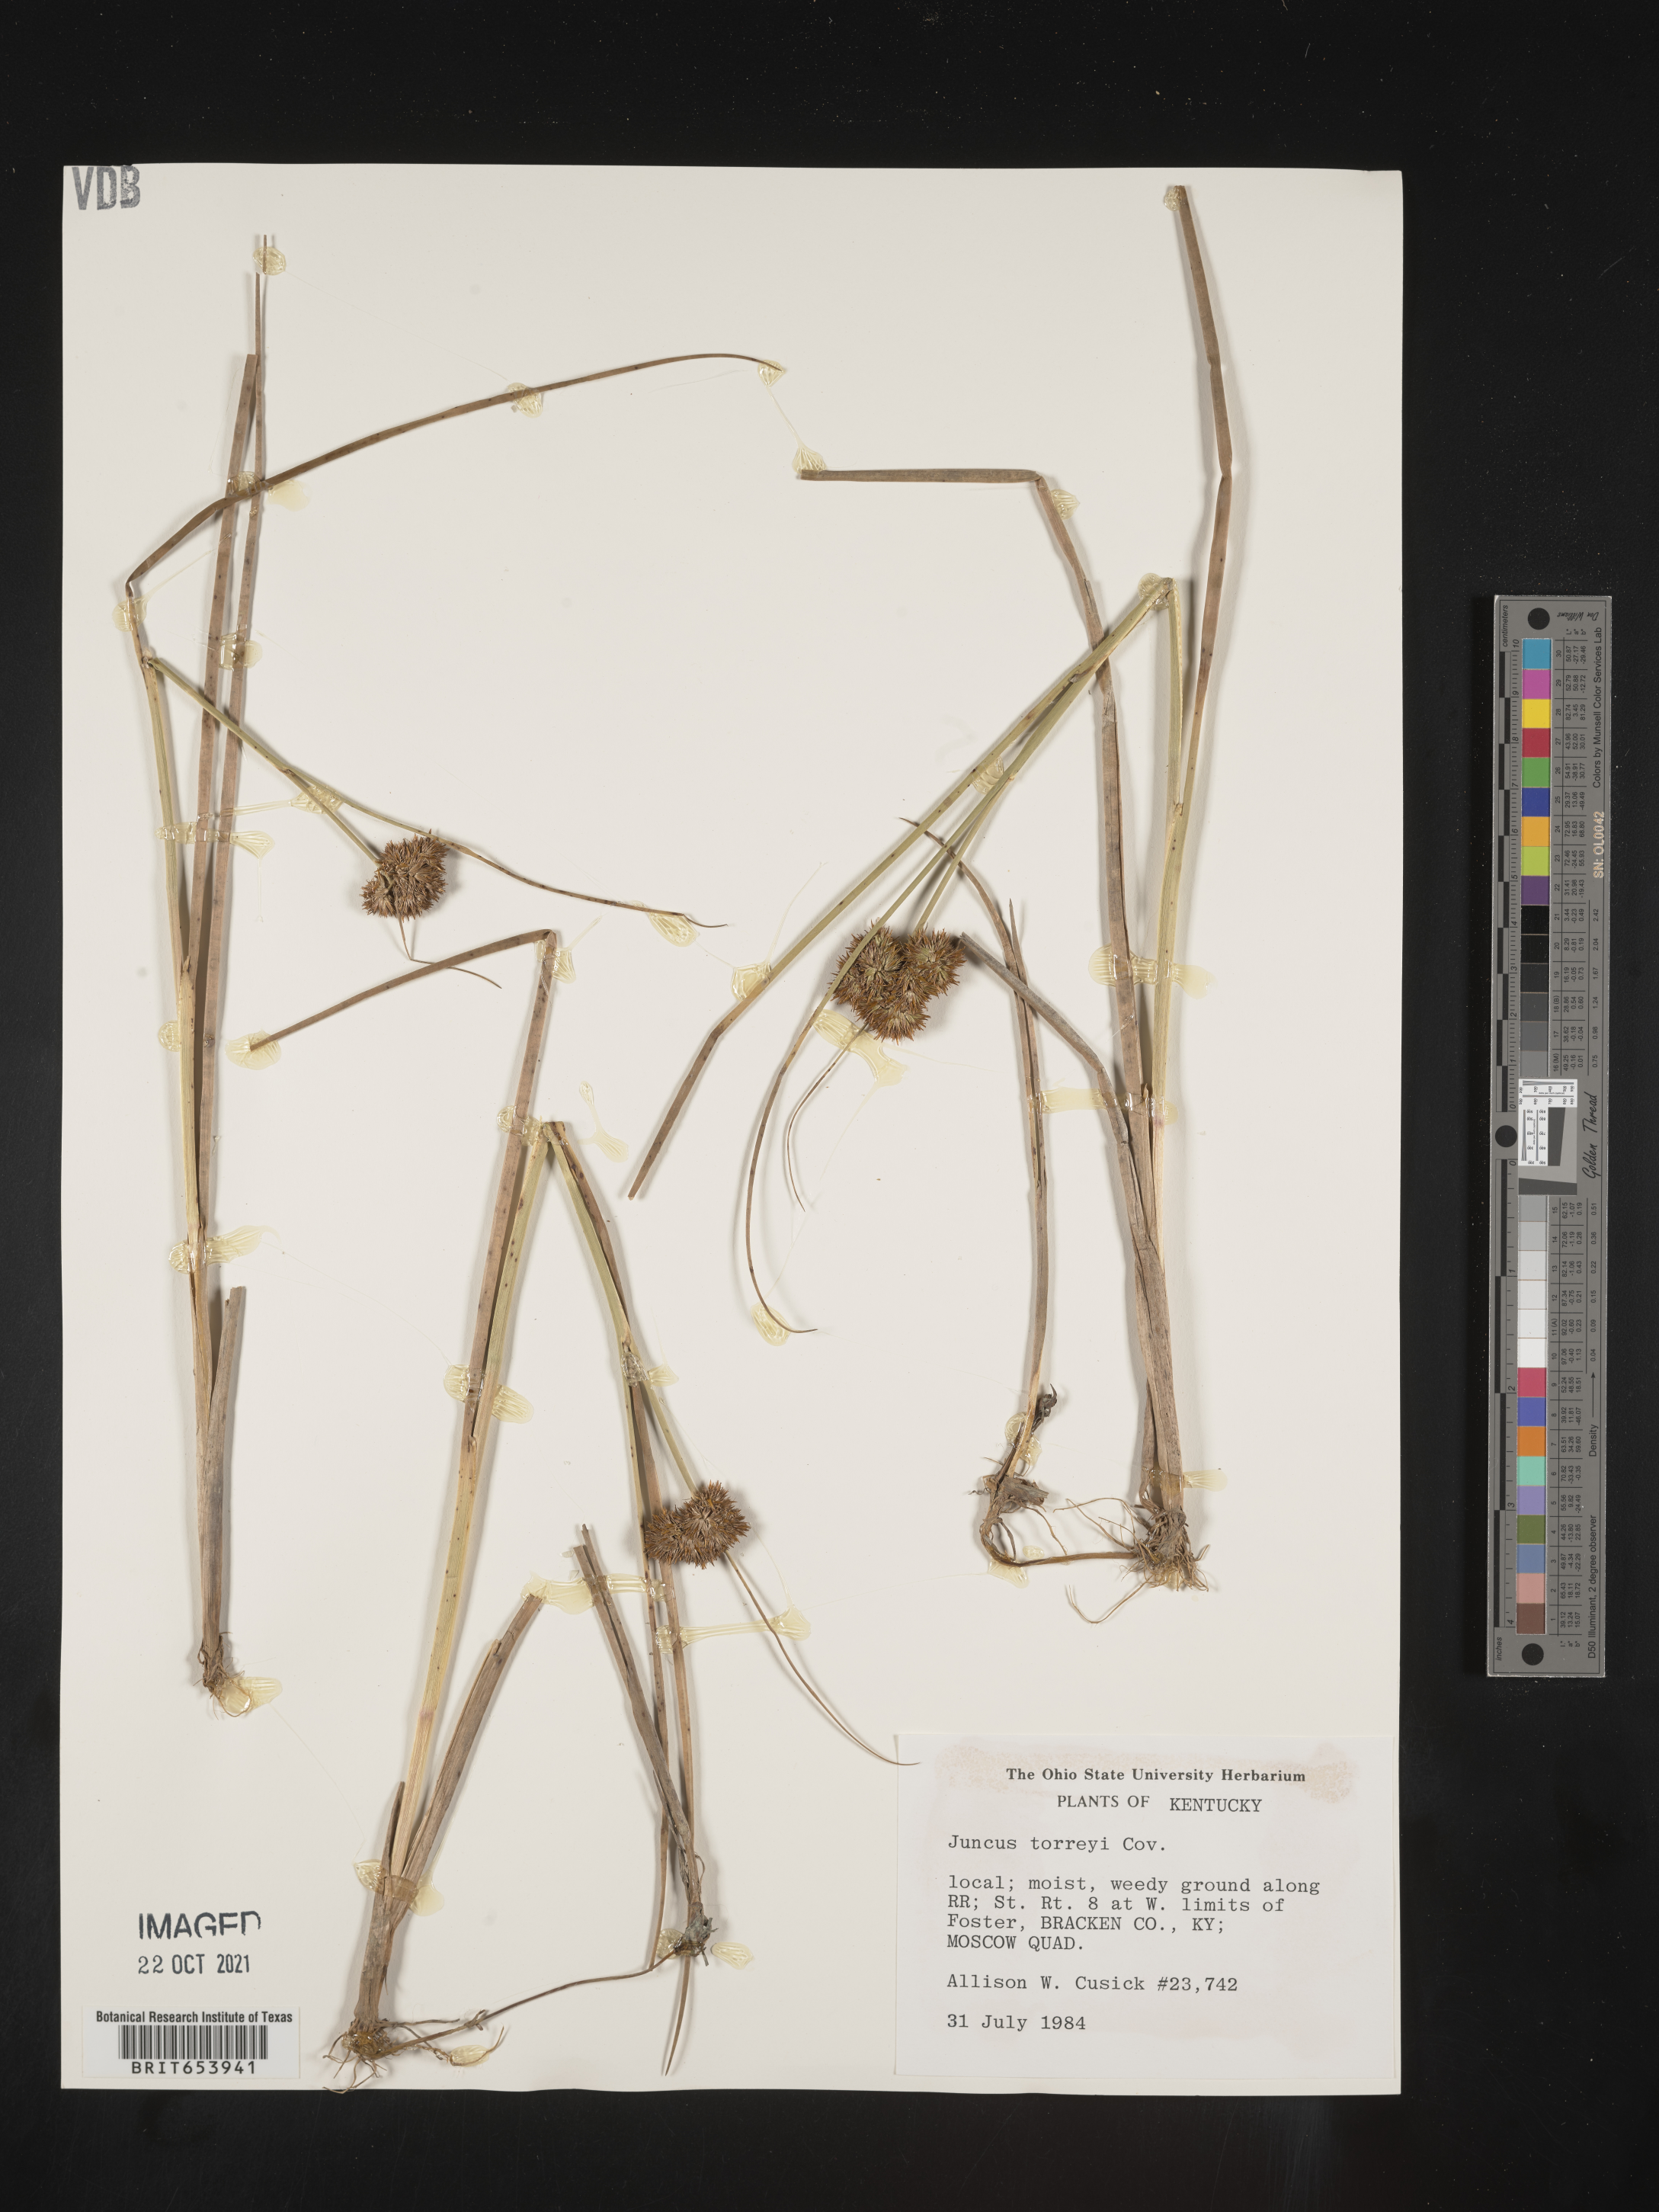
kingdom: Plantae
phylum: Tracheophyta
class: Liliopsida
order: Poales
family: Juncaceae
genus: Juncus
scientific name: Juncus torreyi
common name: Torrey's rush
